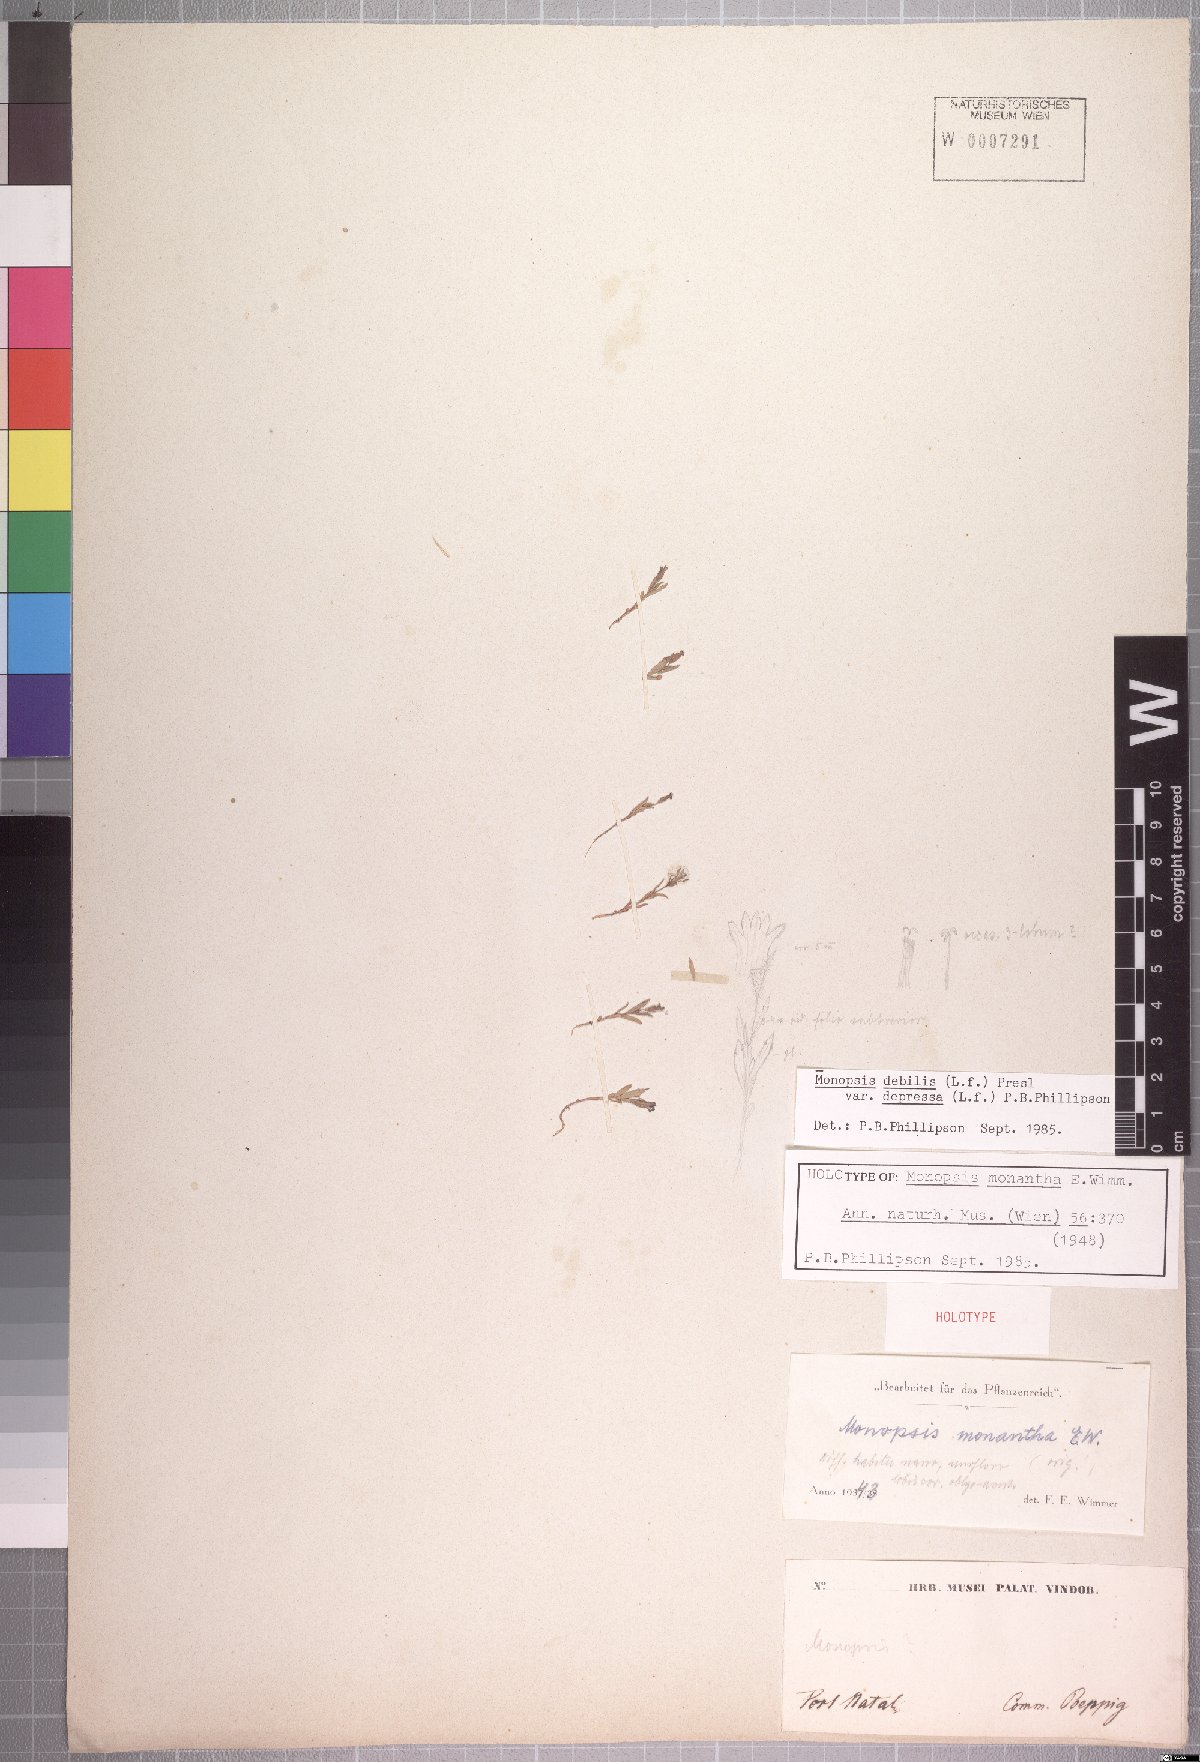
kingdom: Plantae
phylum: Tracheophyta
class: Magnoliopsida
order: Asterales
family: Campanulaceae
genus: Monopsis
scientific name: Monopsis debilis
